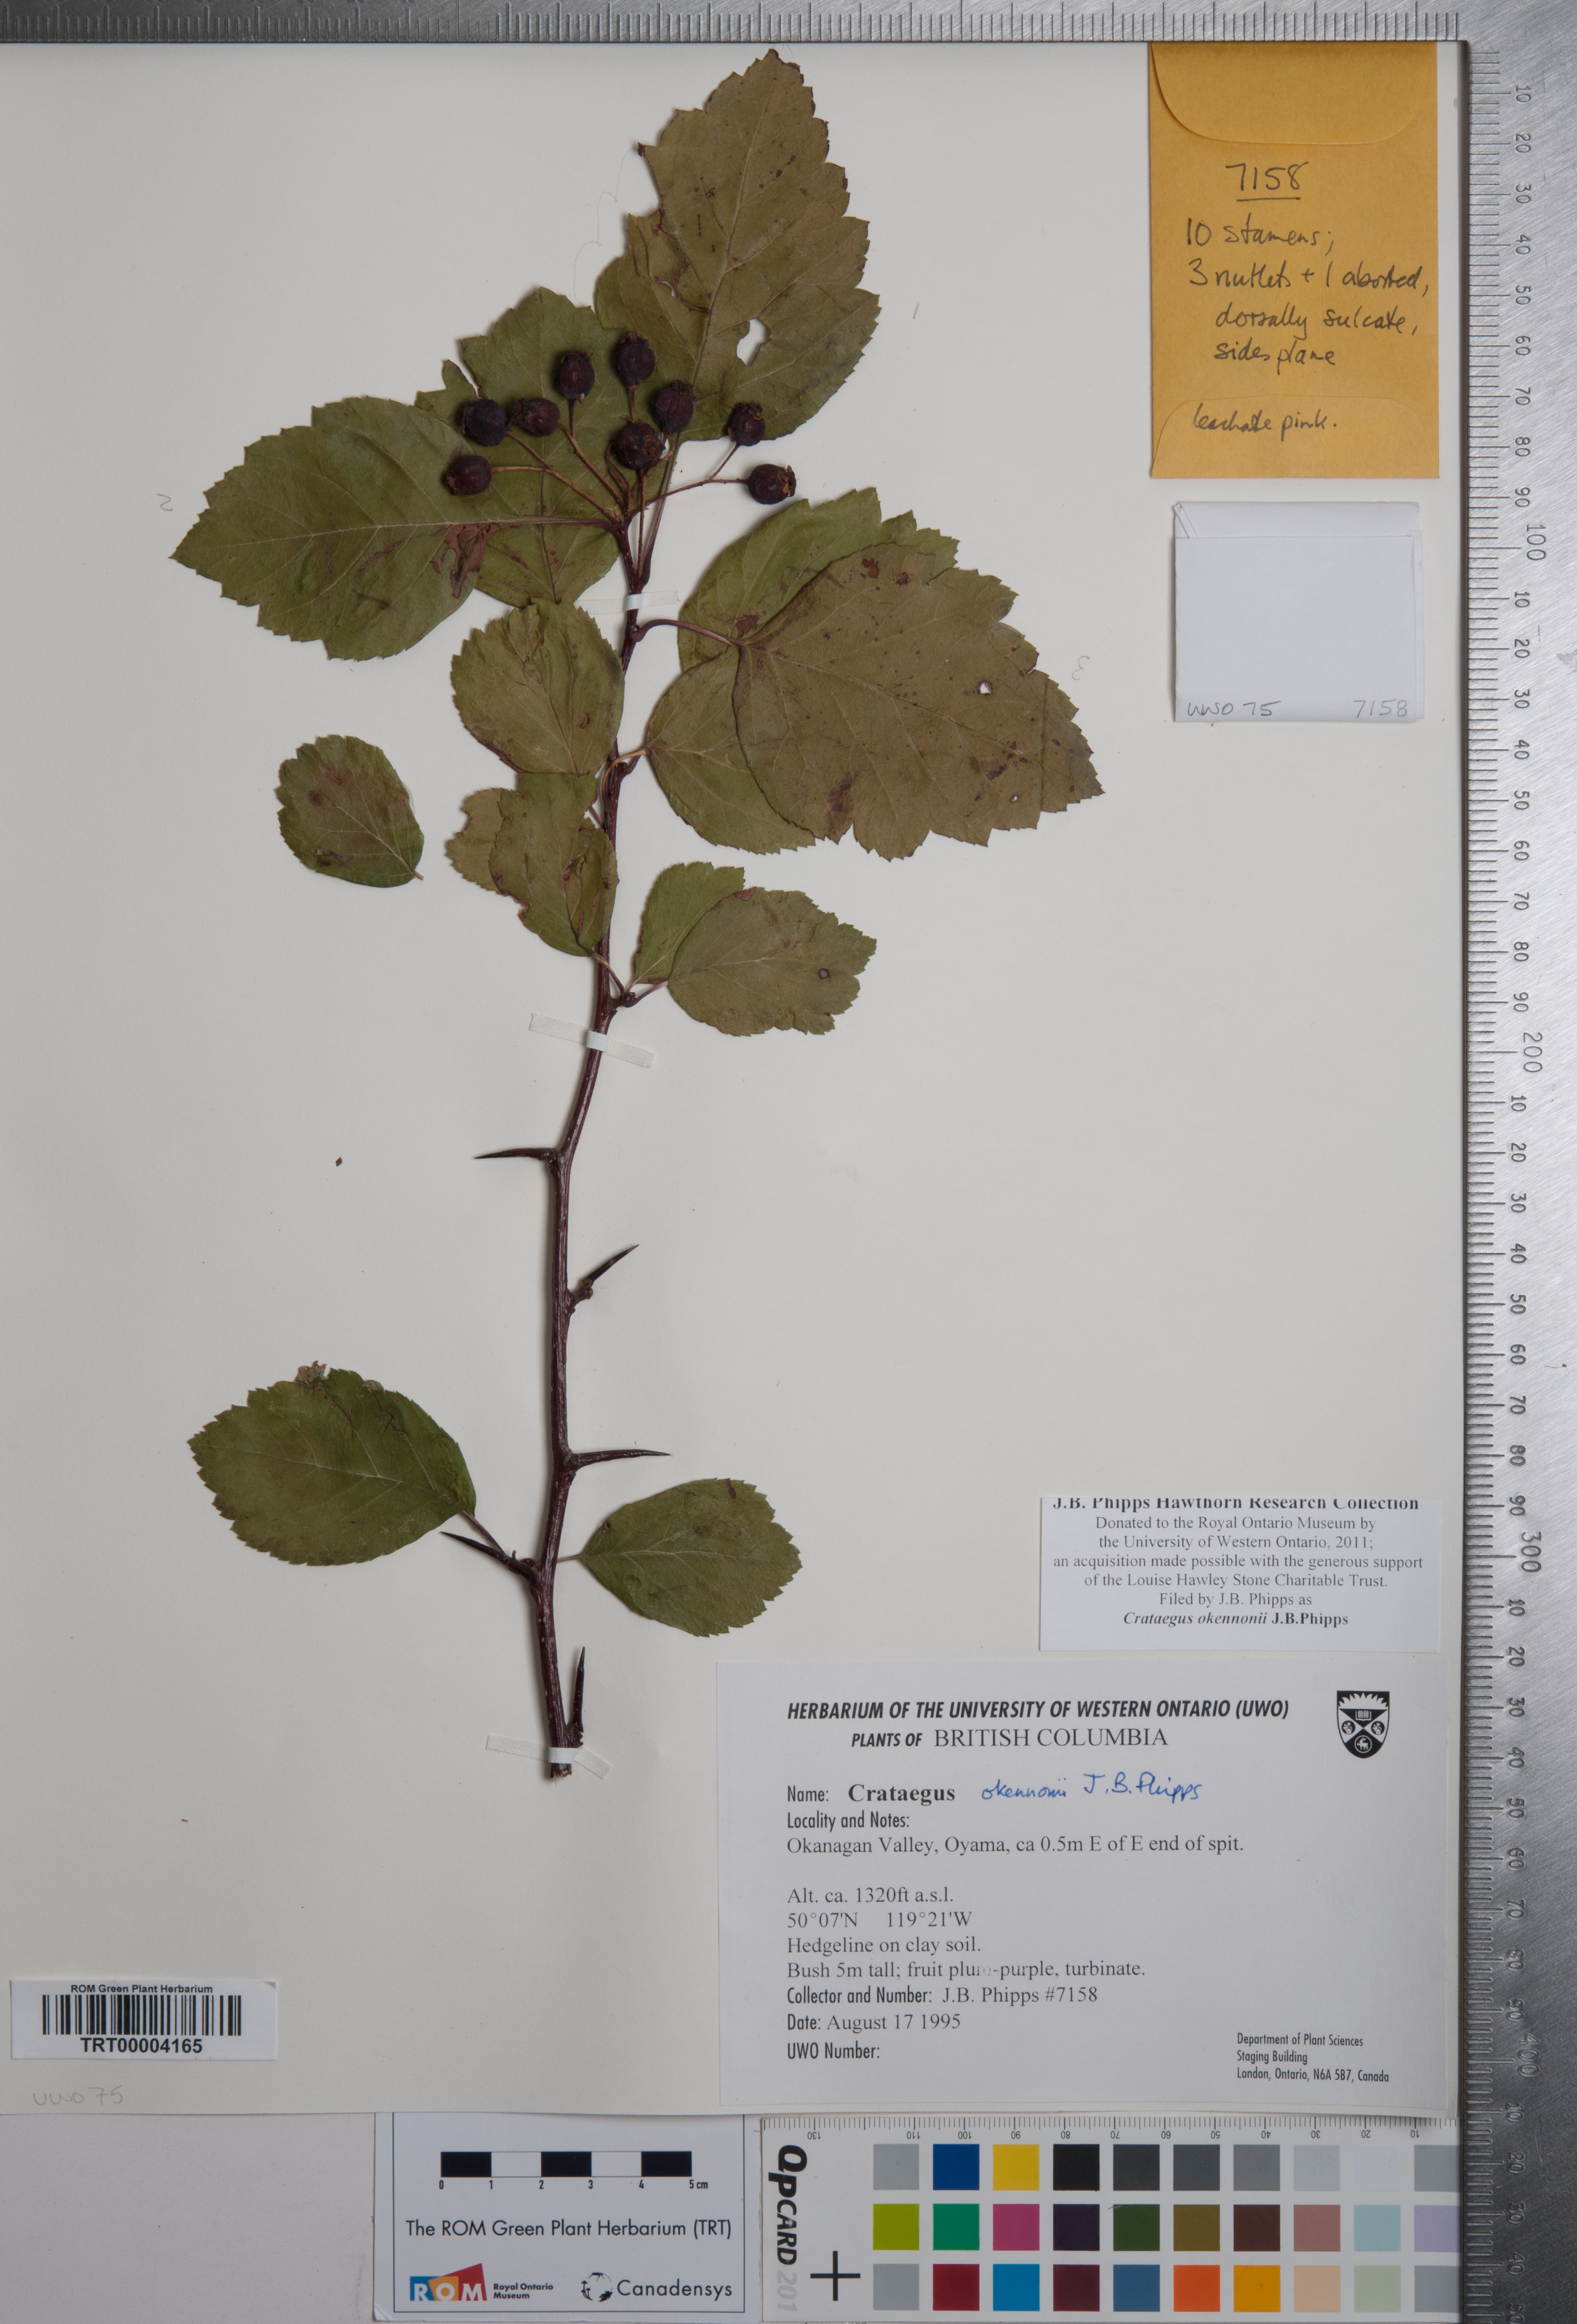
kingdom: Plantae
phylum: Tracheophyta
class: Magnoliopsida
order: Rosales
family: Rosaceae
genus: Crataegus
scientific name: Crataegus okennonii
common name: O'kennon's hawthorn
